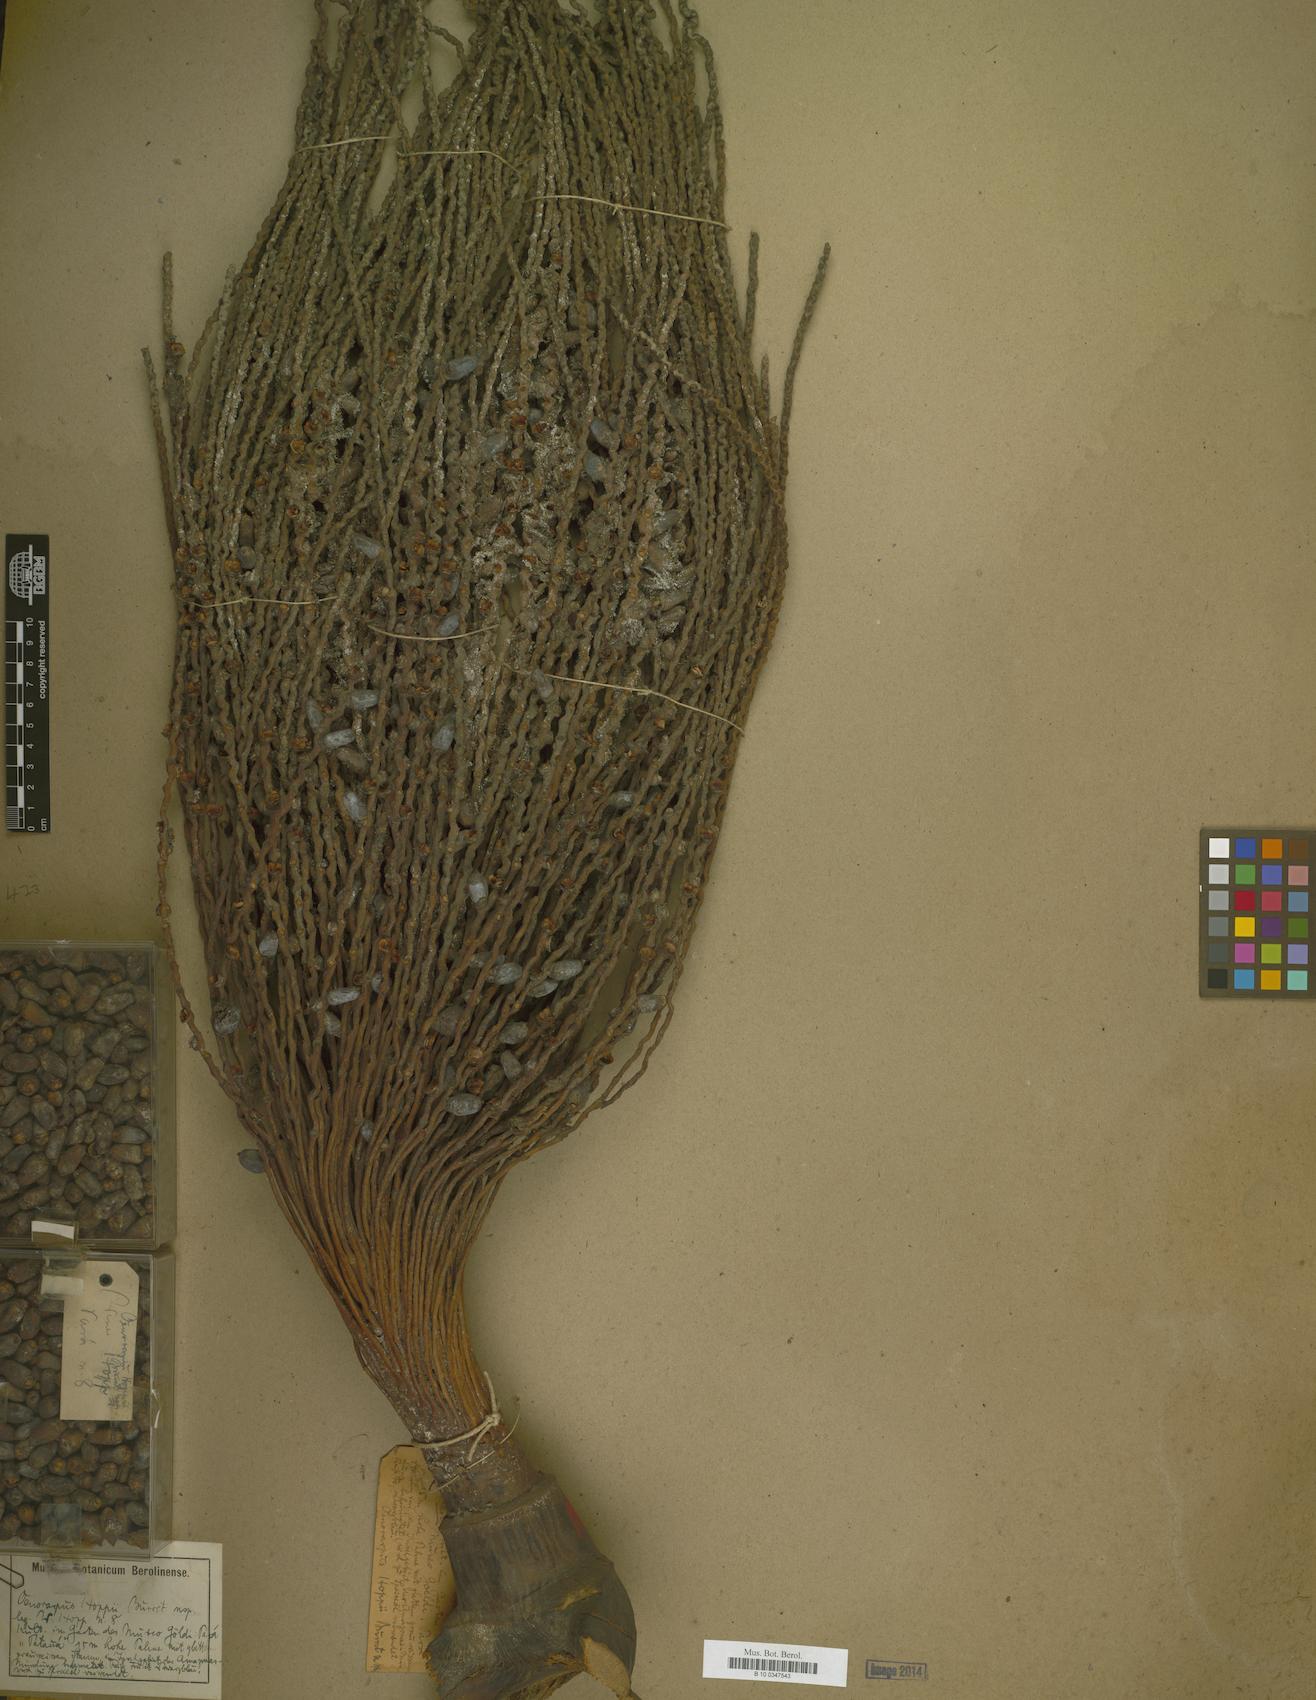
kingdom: Plantae
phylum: Tracheophyta
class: Liliopsida
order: Arecales
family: Arecaceae
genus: Oenocarpus
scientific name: Oenocarpus bacaba
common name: Bacaba palm
